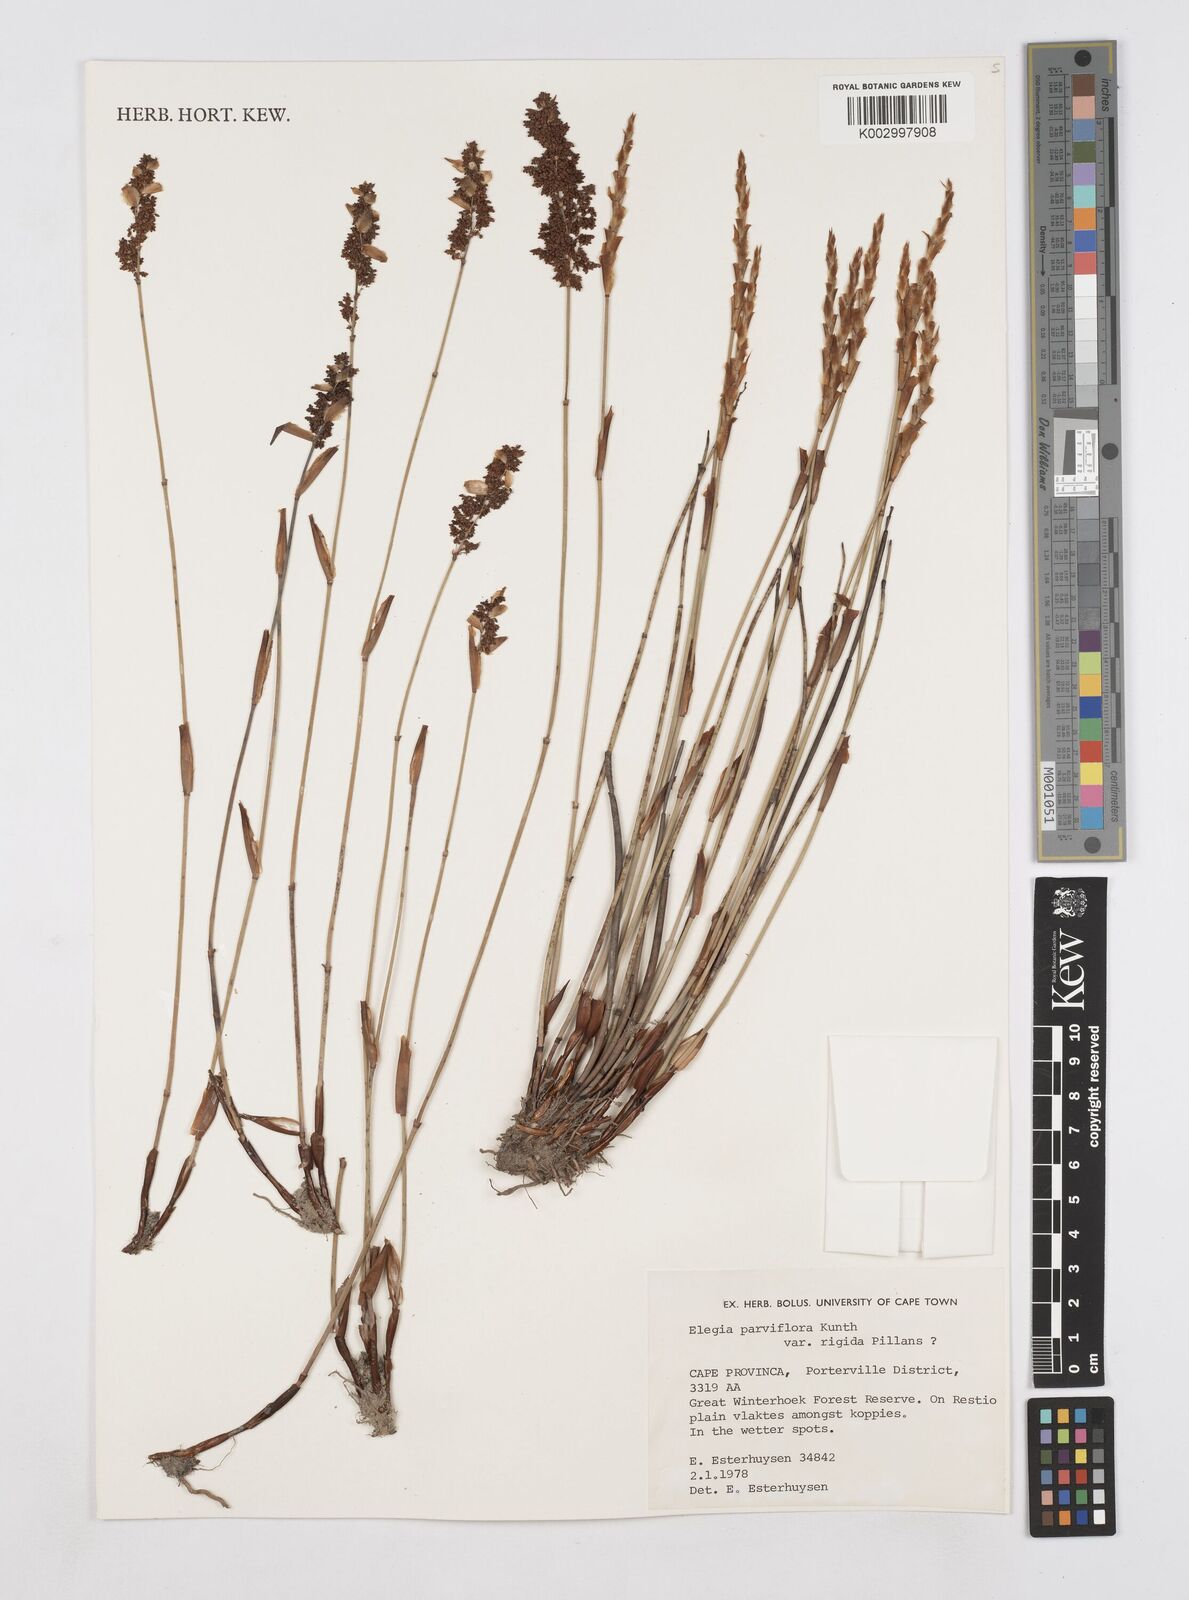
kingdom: Plantae
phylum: Tracheophyta
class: Liliopsida
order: Poales
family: Restionaceae
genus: Elegia
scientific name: Elegia rigida
